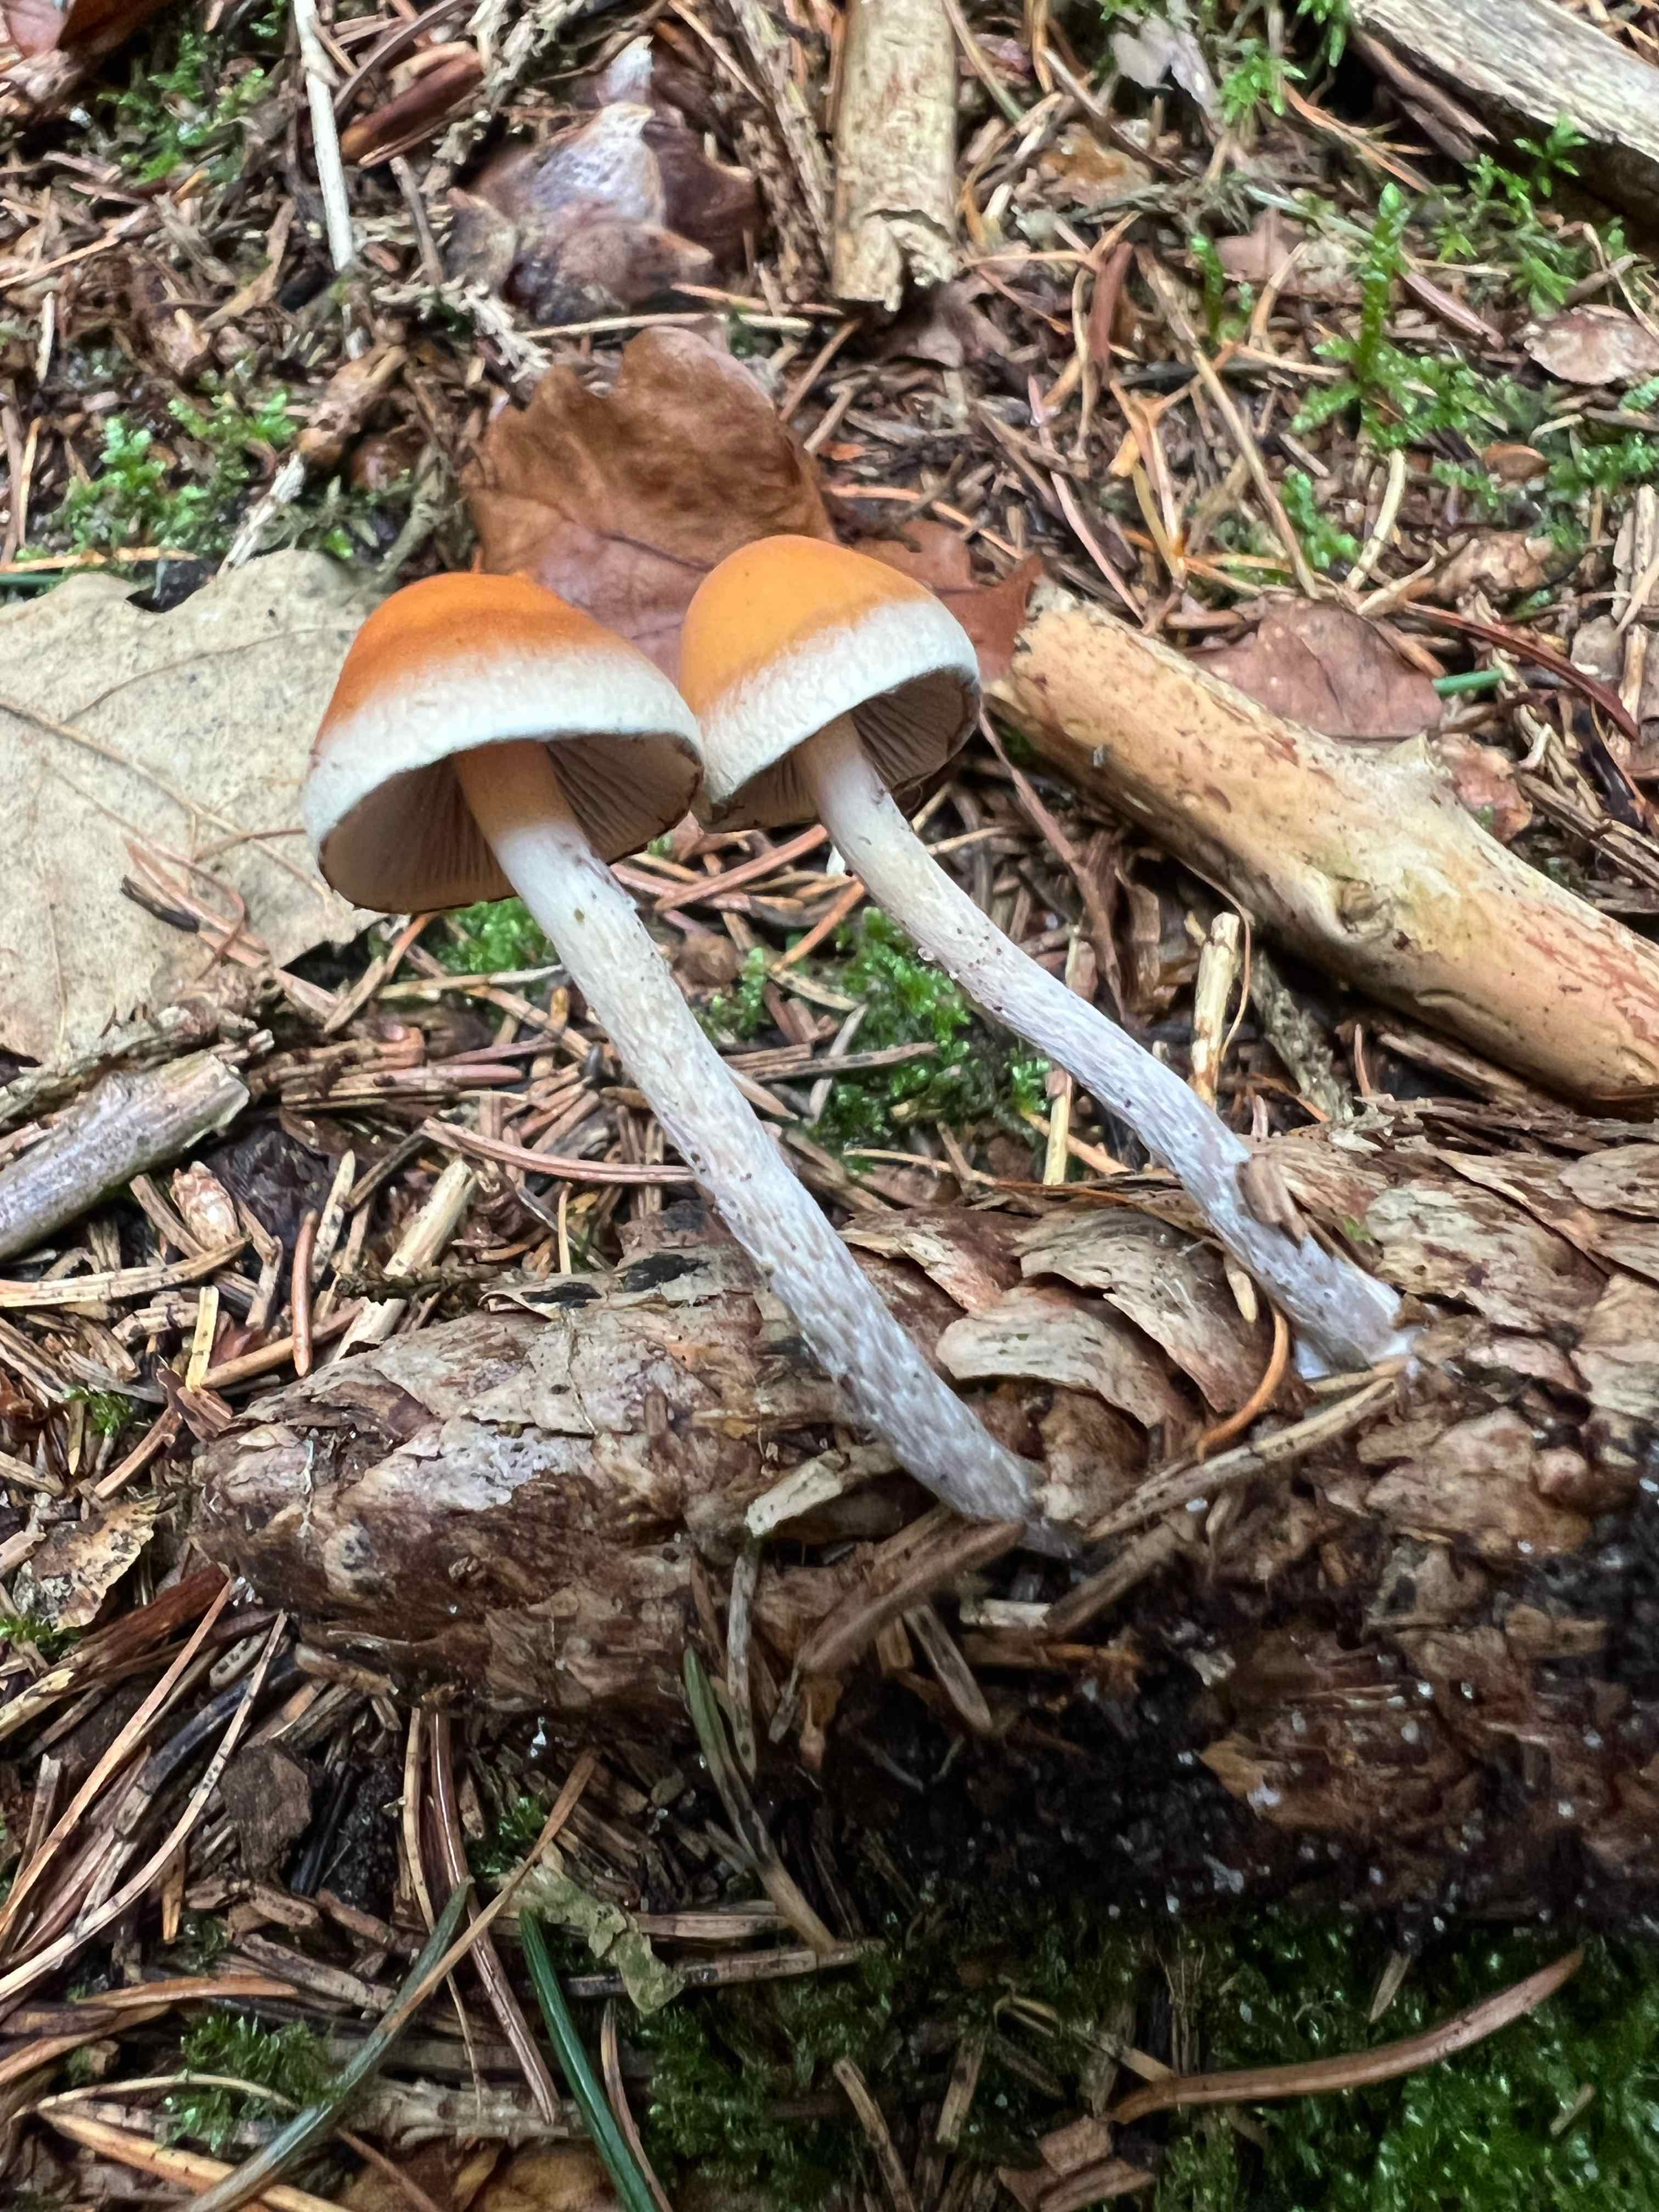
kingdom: Fungi
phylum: Basidiomycota
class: Agaricomycetes
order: Agaricales
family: Strophariaceae
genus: Hypholoma
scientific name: Hypholoma marginatum
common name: enlig svovlhat
